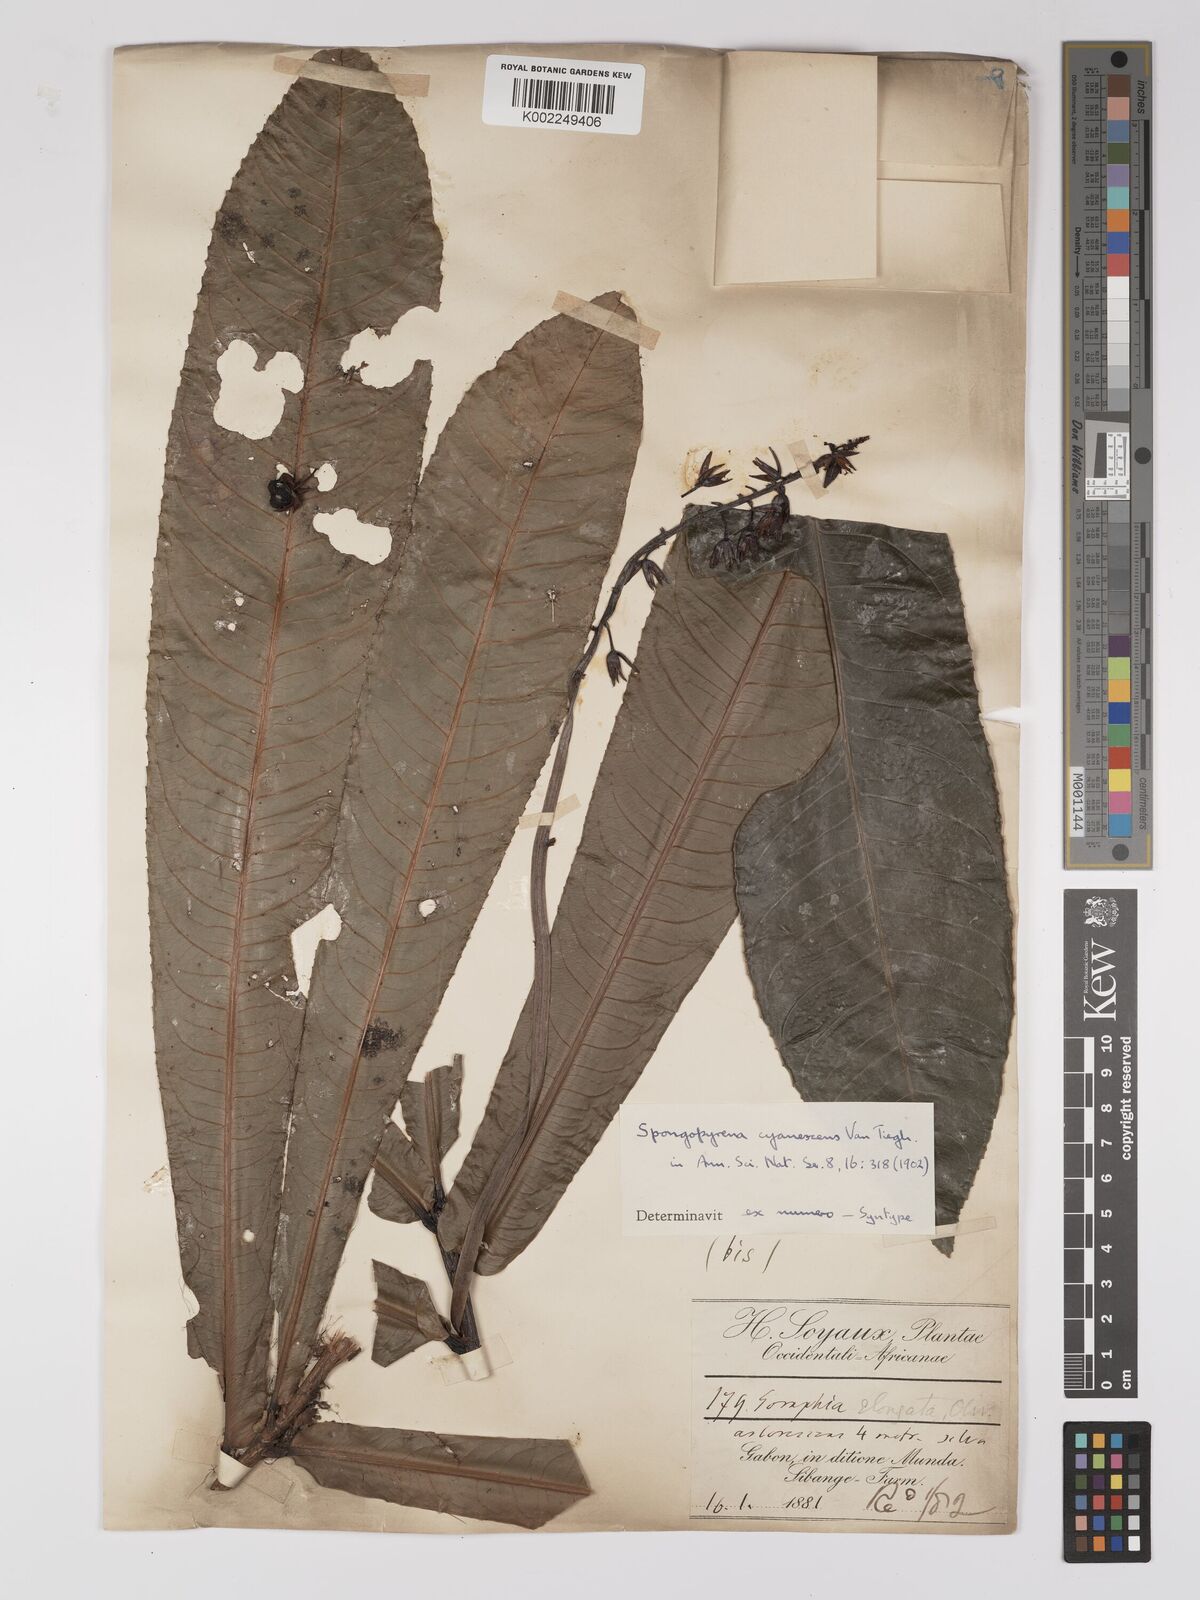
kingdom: Plantae
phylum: Tracheophyta
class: Magnoliopsida
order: Malpighiales
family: Ochnaceae
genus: Gomphia
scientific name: Gomphia elongata
